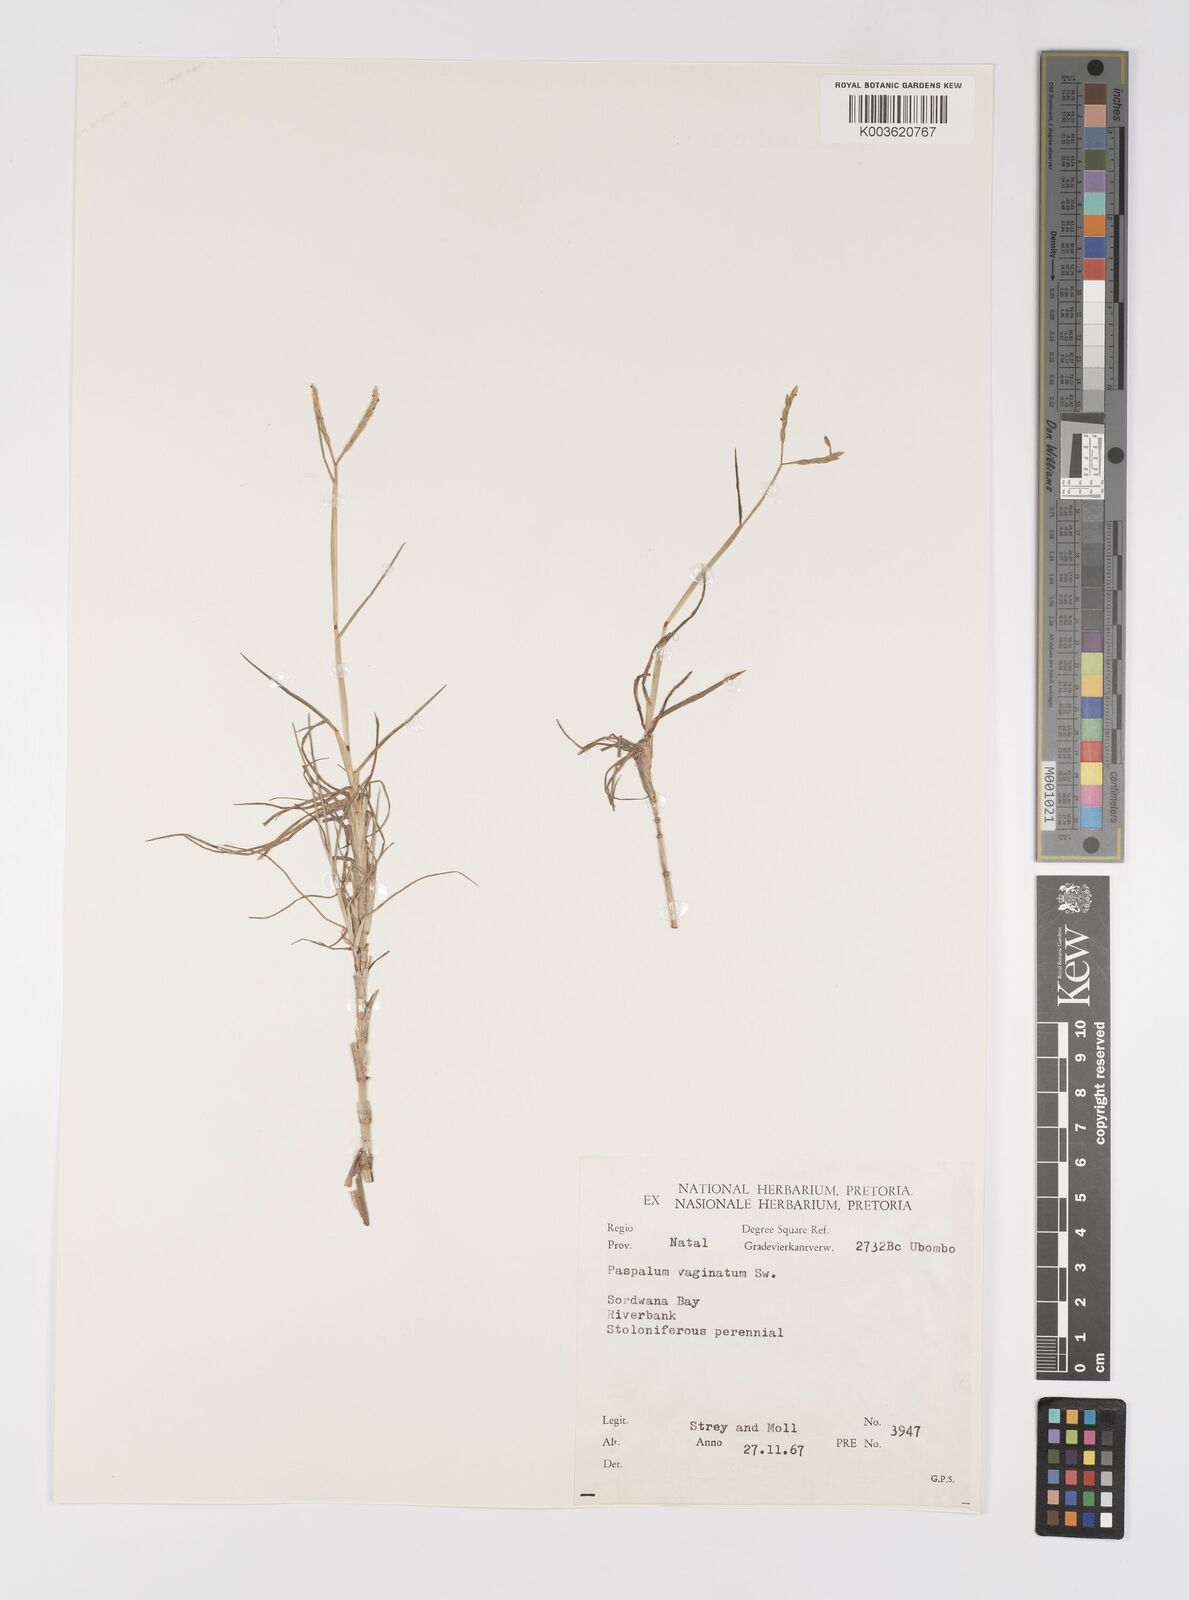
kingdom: Plantae
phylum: Tracheophyta
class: Liliopsida
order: Poales
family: Poaceae
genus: Paspalum
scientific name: Paspalum vaginatum
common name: Seashore paspalum
